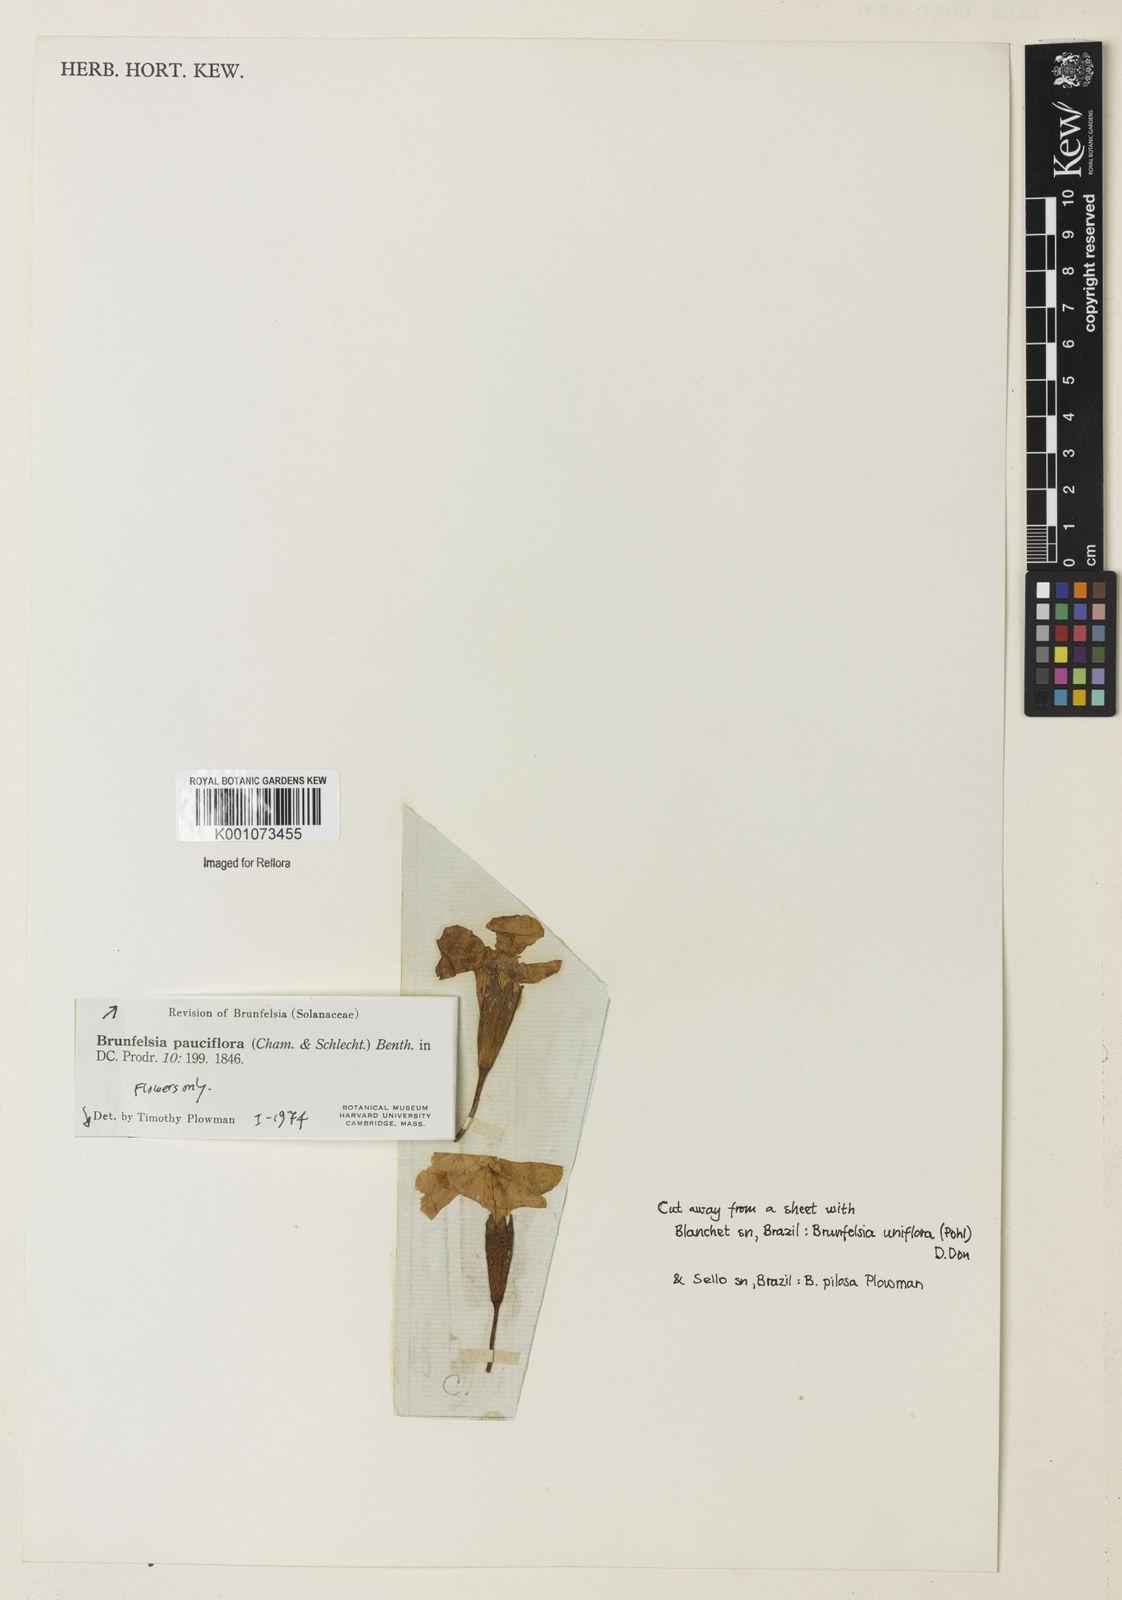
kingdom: Plantae
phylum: Tracheophyta
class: Magnoliopsida
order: Solanales
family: Solanaceae
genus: Brunfelsia
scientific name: Brunfelsia pauciflora
